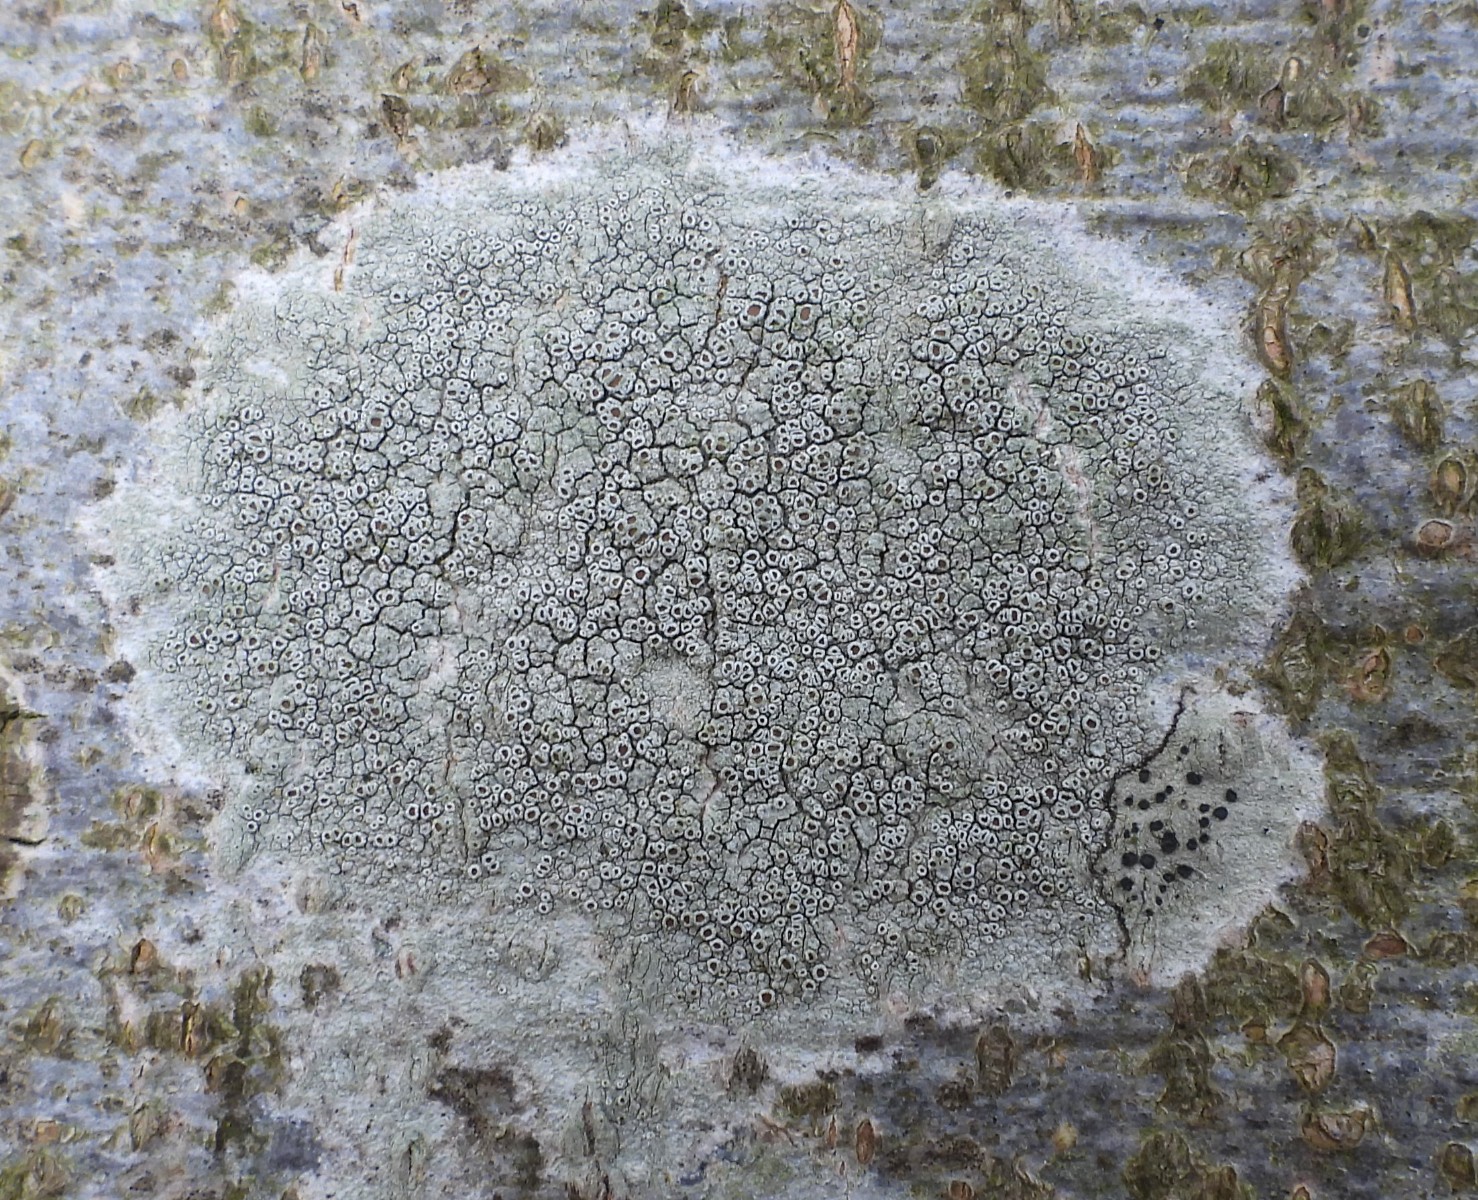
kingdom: Fungi
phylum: Ascomycota
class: Lecanoromycetes
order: Lecanorales
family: Lecanoraceae
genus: Lecanora
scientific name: Lecanora chlarotera
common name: brun kantskivelav
